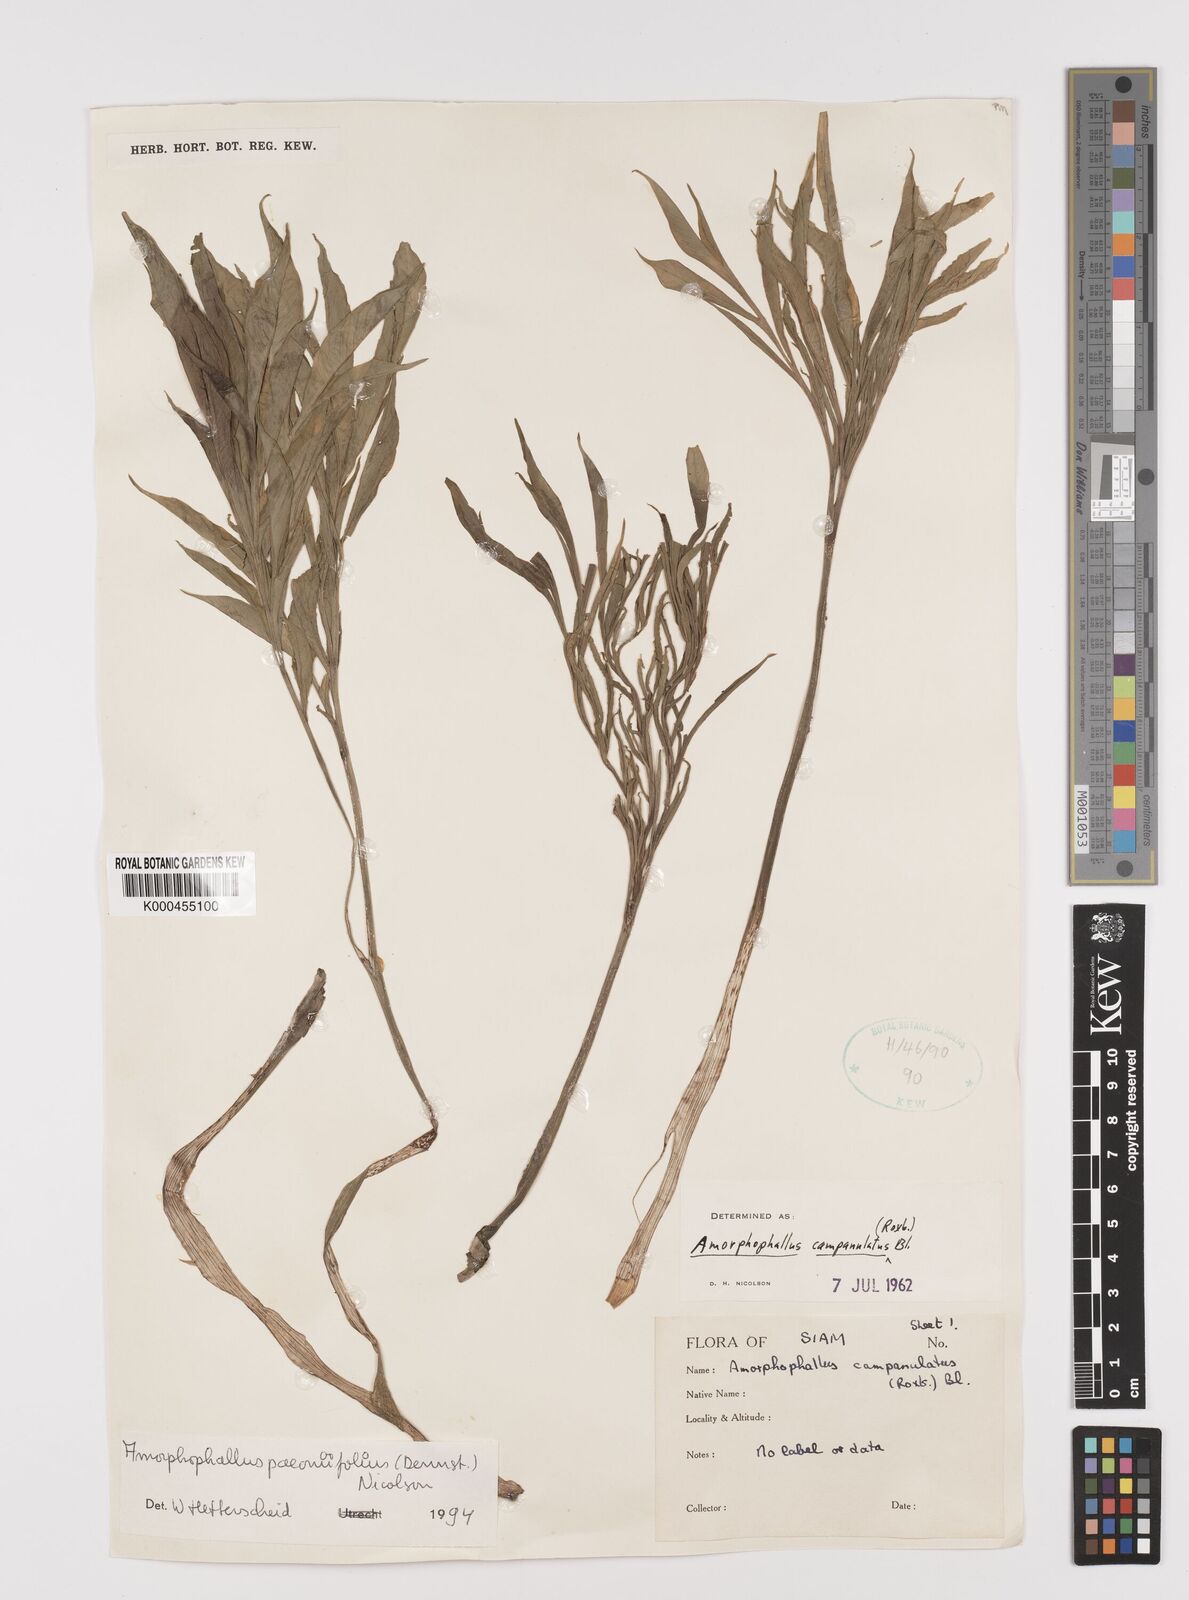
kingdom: Plantae
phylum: Tracheophyta
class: Liliopsida
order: Alismatales
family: Araceae
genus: Amorphophallus
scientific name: Amorphophallus paeoniifolius
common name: Telinga-potato
